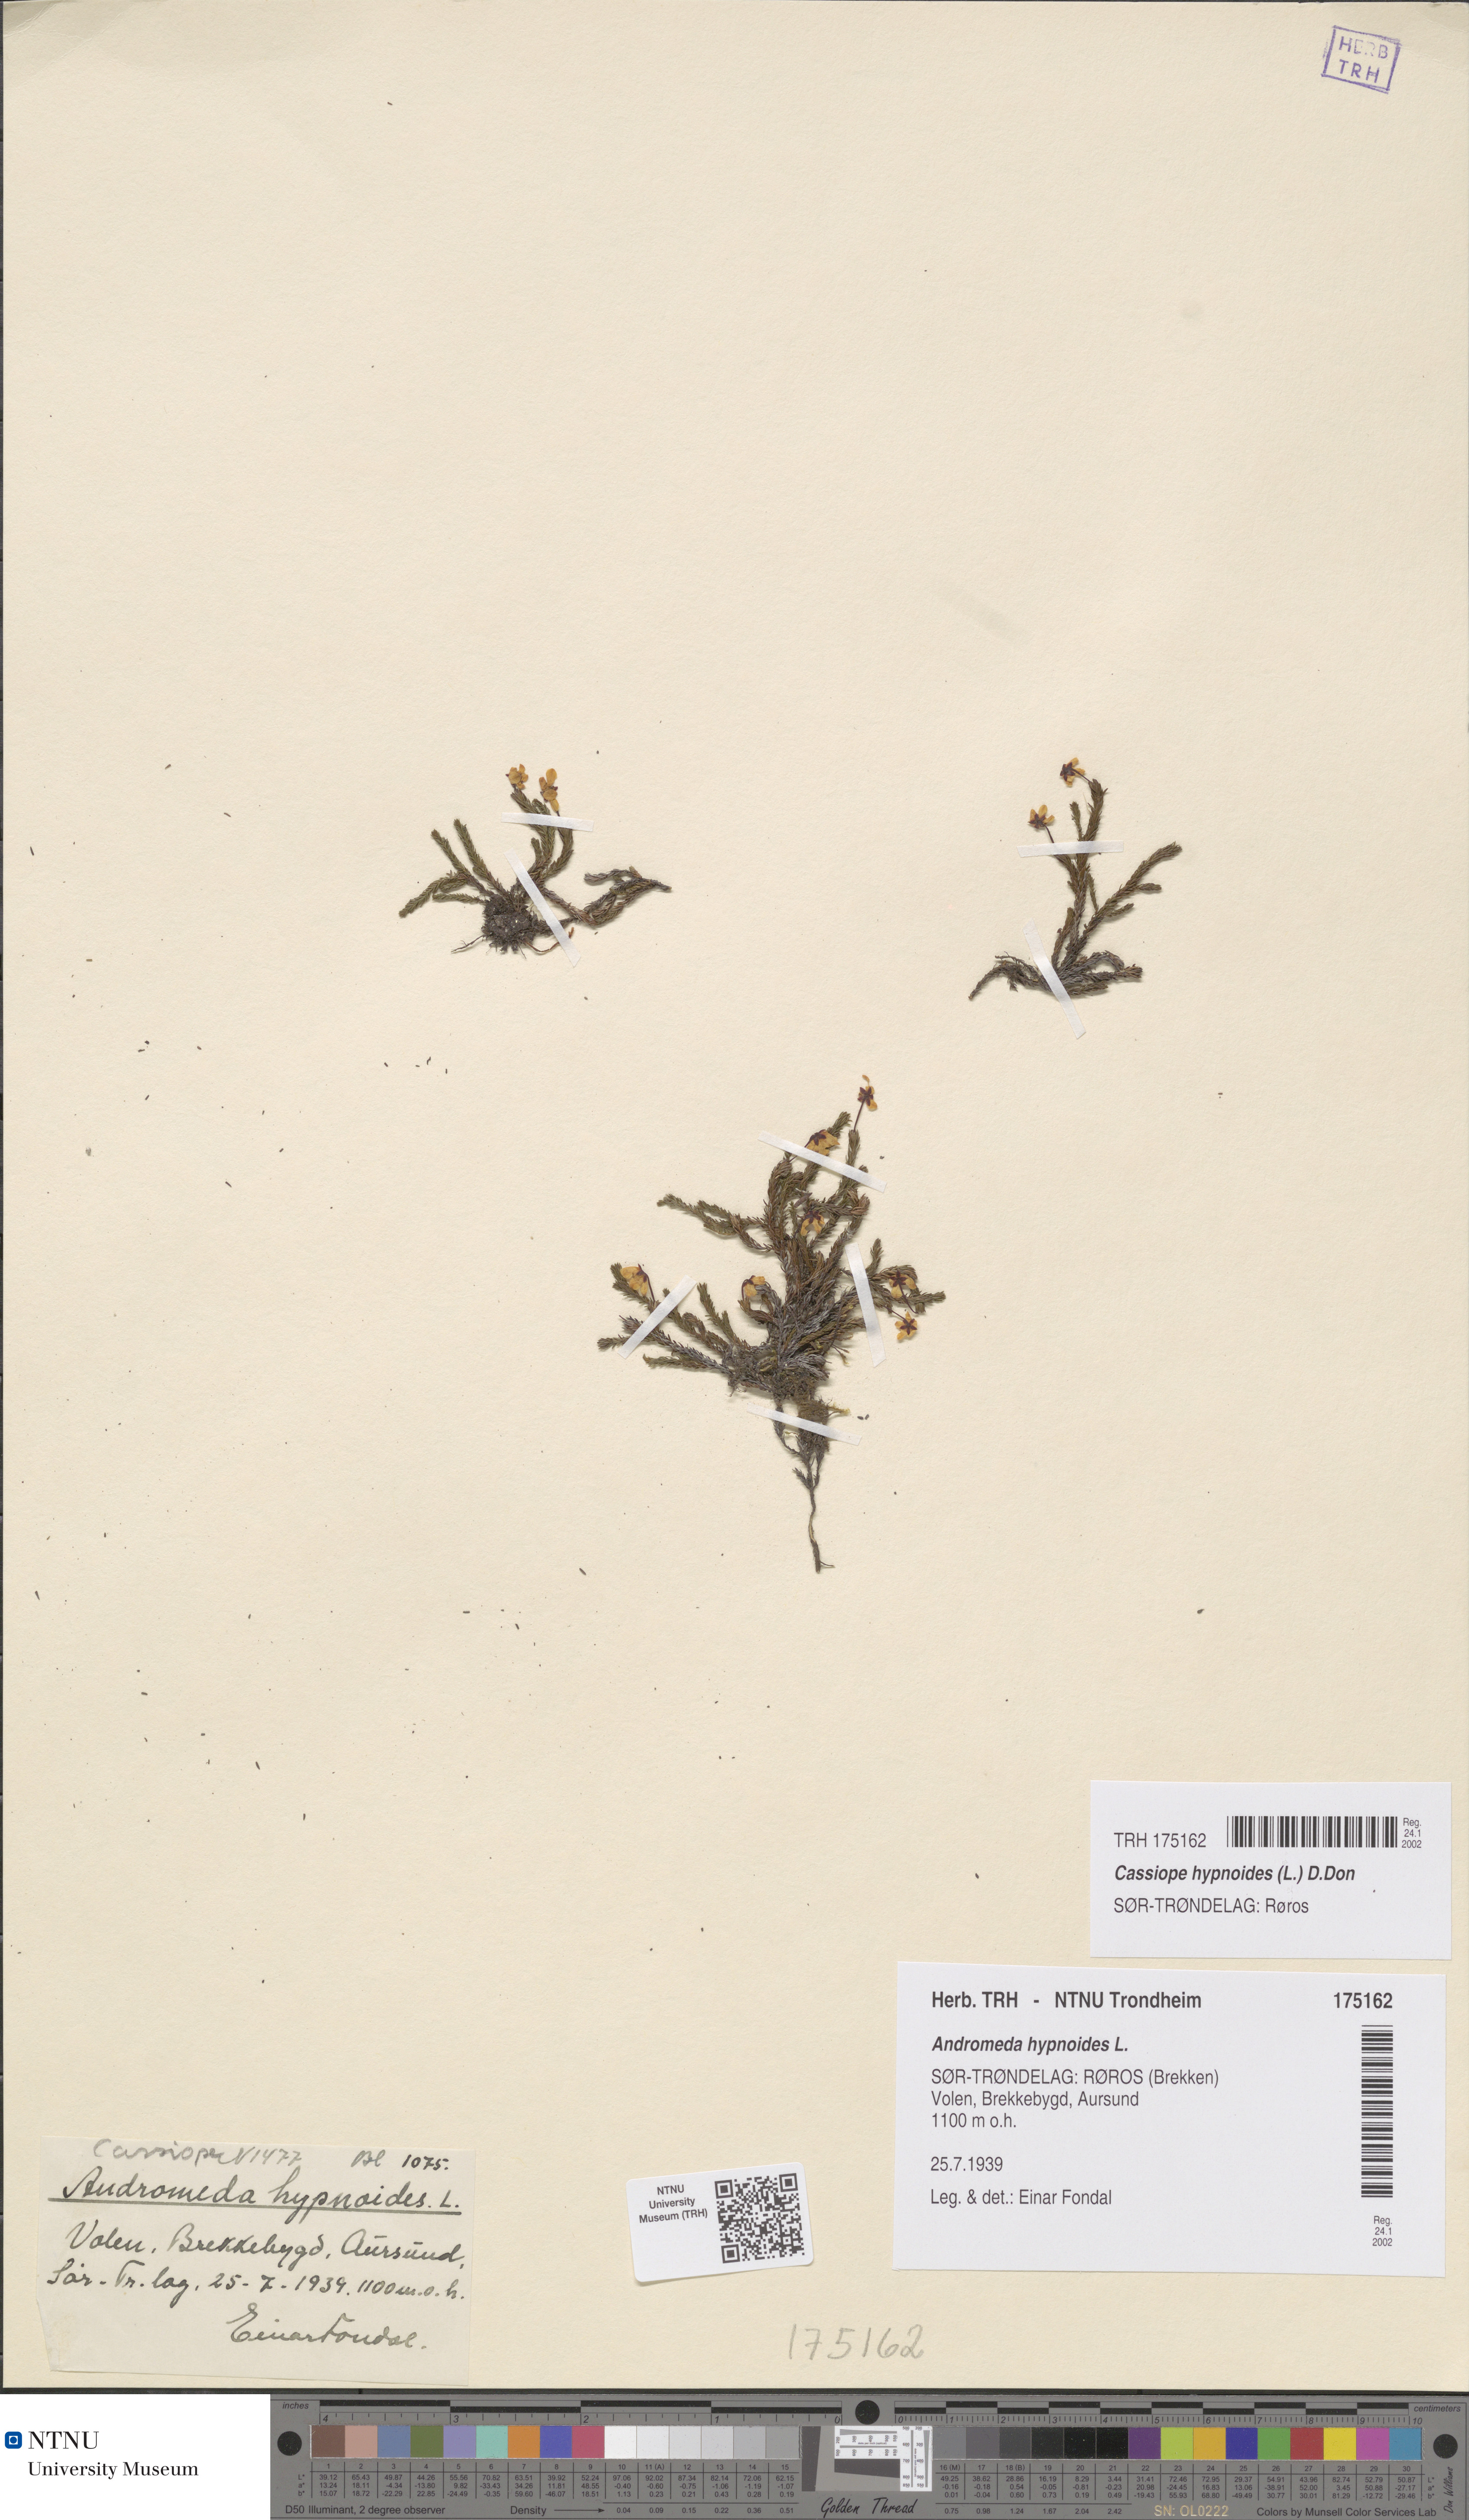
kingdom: Plantae
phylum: Tracheophyta
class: Magnoliopsida
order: Ericales
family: Ericaceae
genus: Harrimanella
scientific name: Harrimanella hypnoides
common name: Moss bell heather
